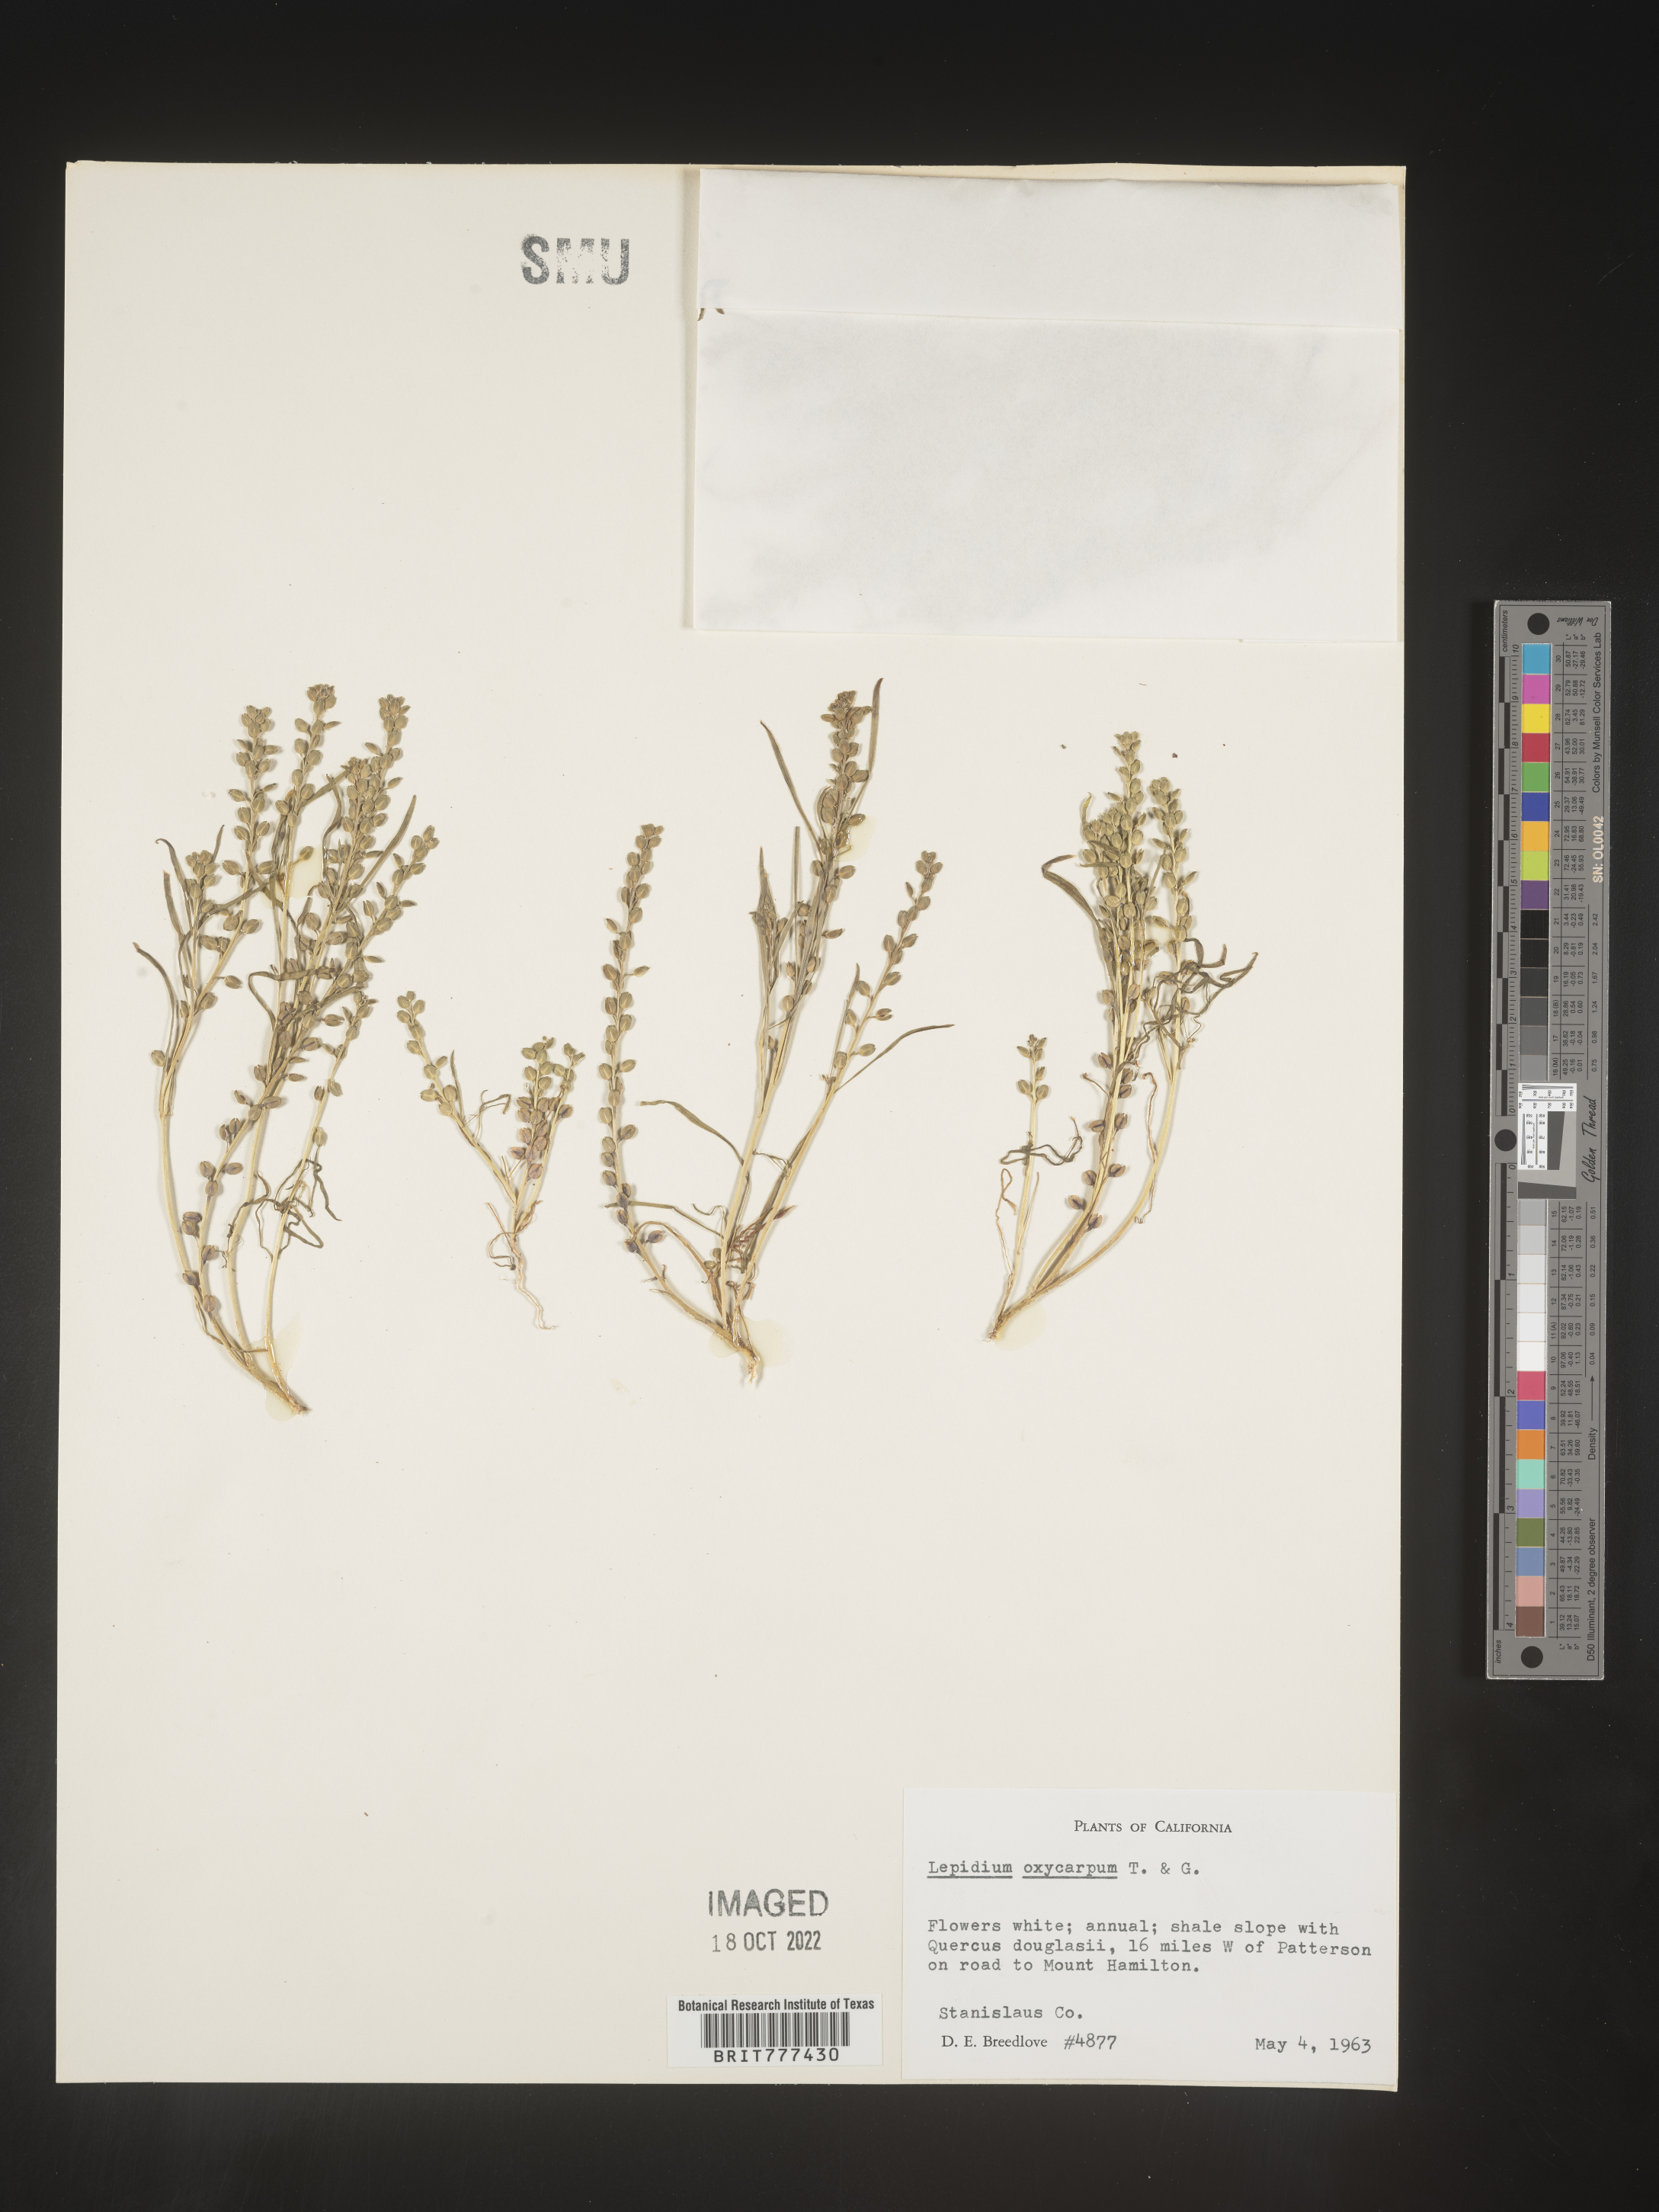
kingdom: Plantae
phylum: Tracheophyta
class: Magnoliopsida
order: Brassicales
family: Brassicaceae
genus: Lepidium
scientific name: Lepidium oxycarpum
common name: Forked peppergrass
